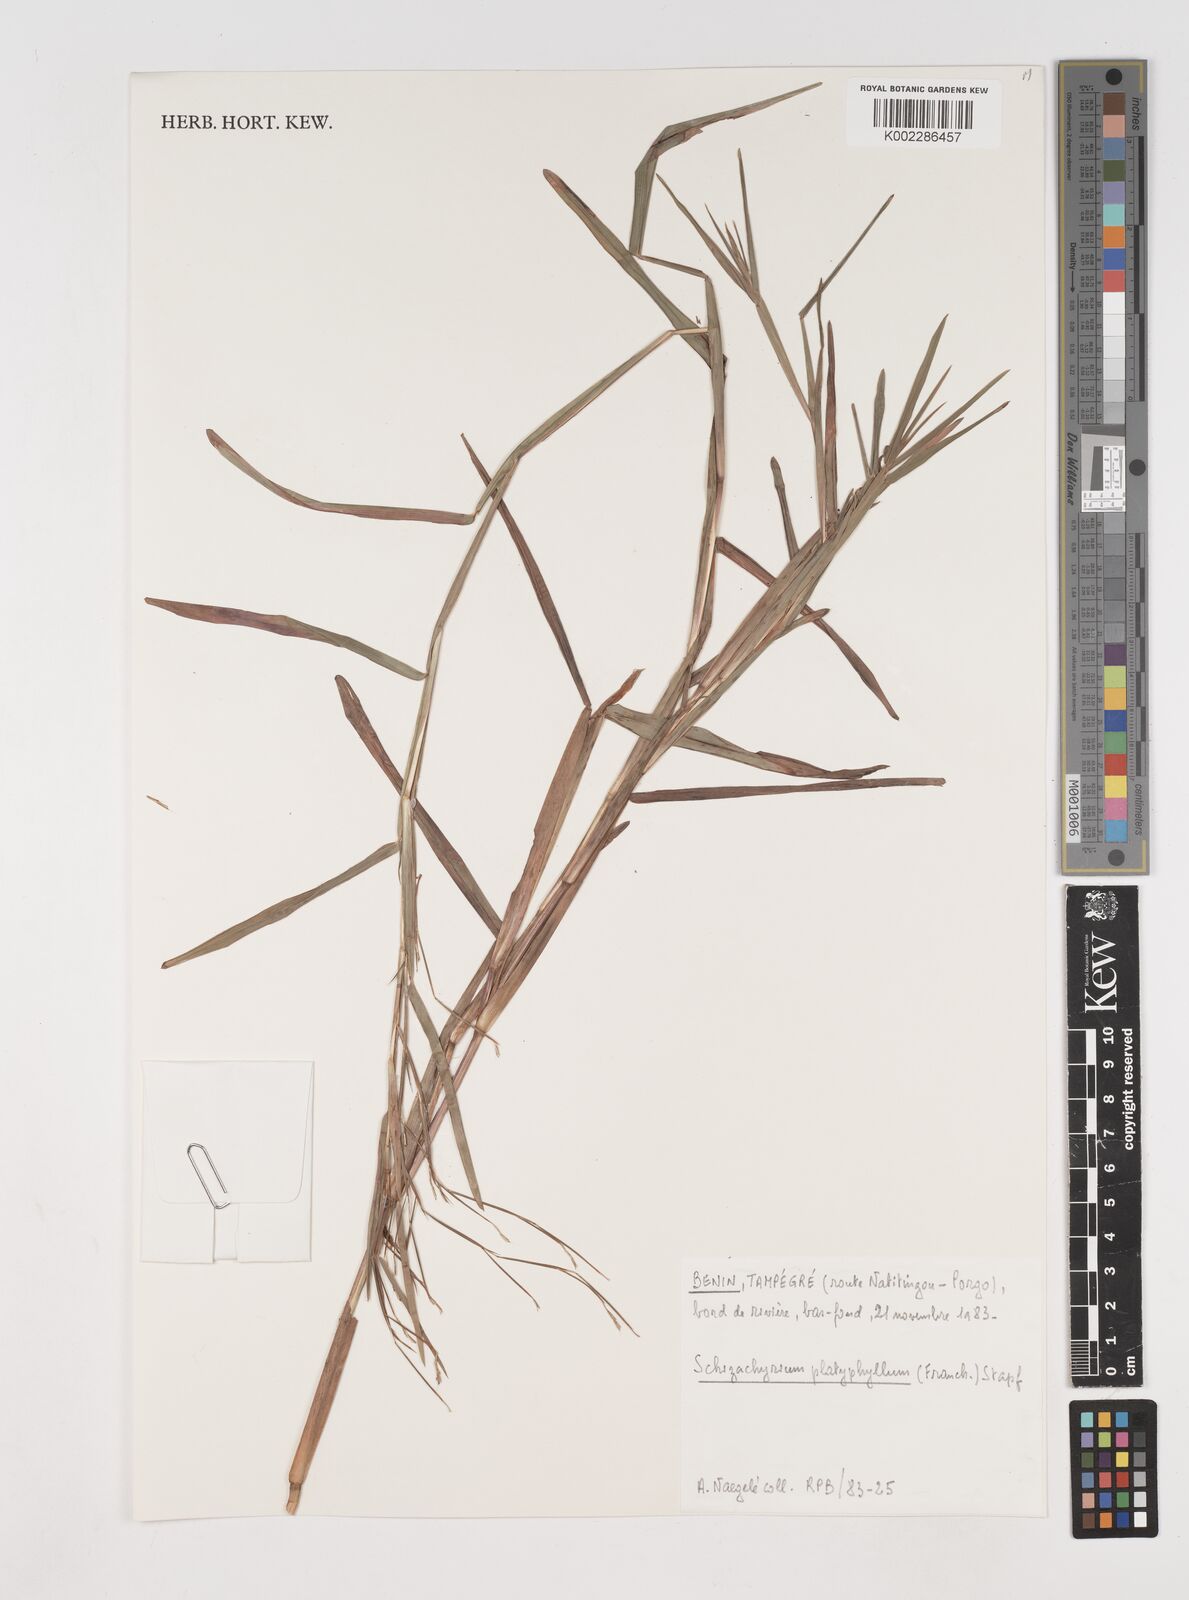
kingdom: Plantae
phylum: Tracheophyta
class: Liliopsida
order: Poales
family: Poaceae
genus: Schizachyrium
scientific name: Schizachyrium platyphyllum
